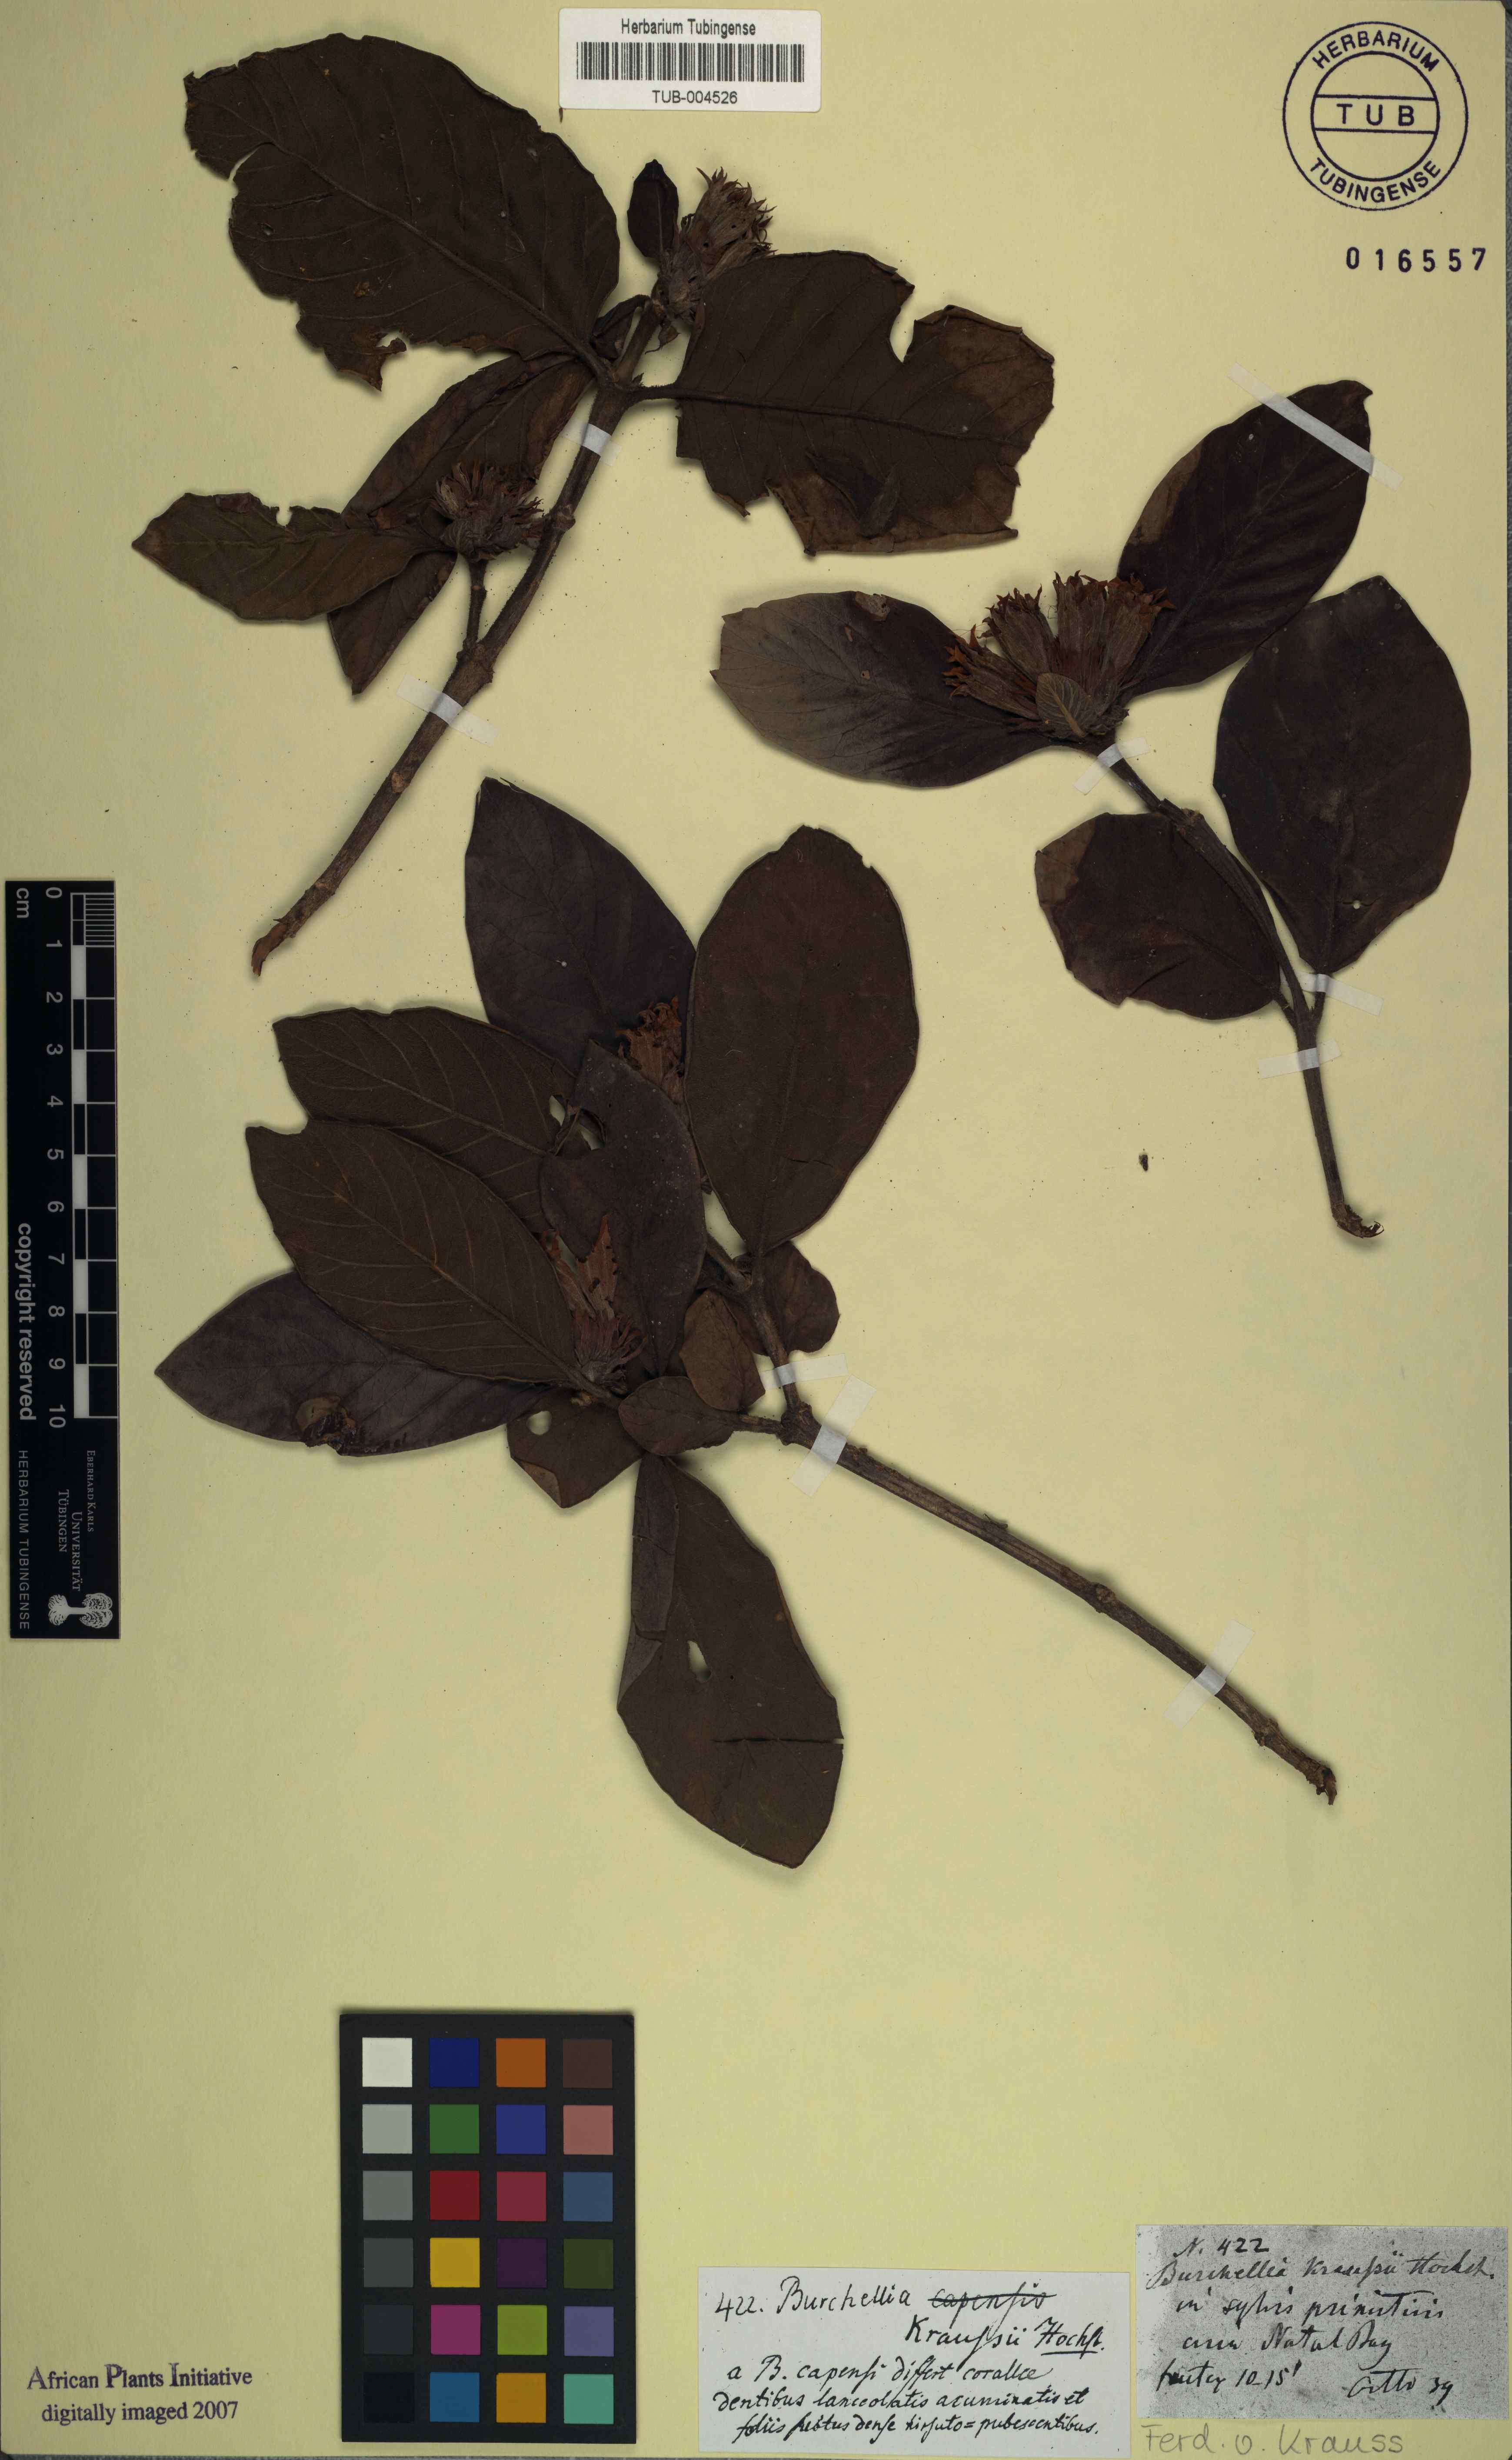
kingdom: Plantae
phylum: Tracheophyta
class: Magnoliopsida
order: Gentianales
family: Rubiaceae
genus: Burchellia
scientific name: Burchellia bubalina
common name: Wild pomegranate
